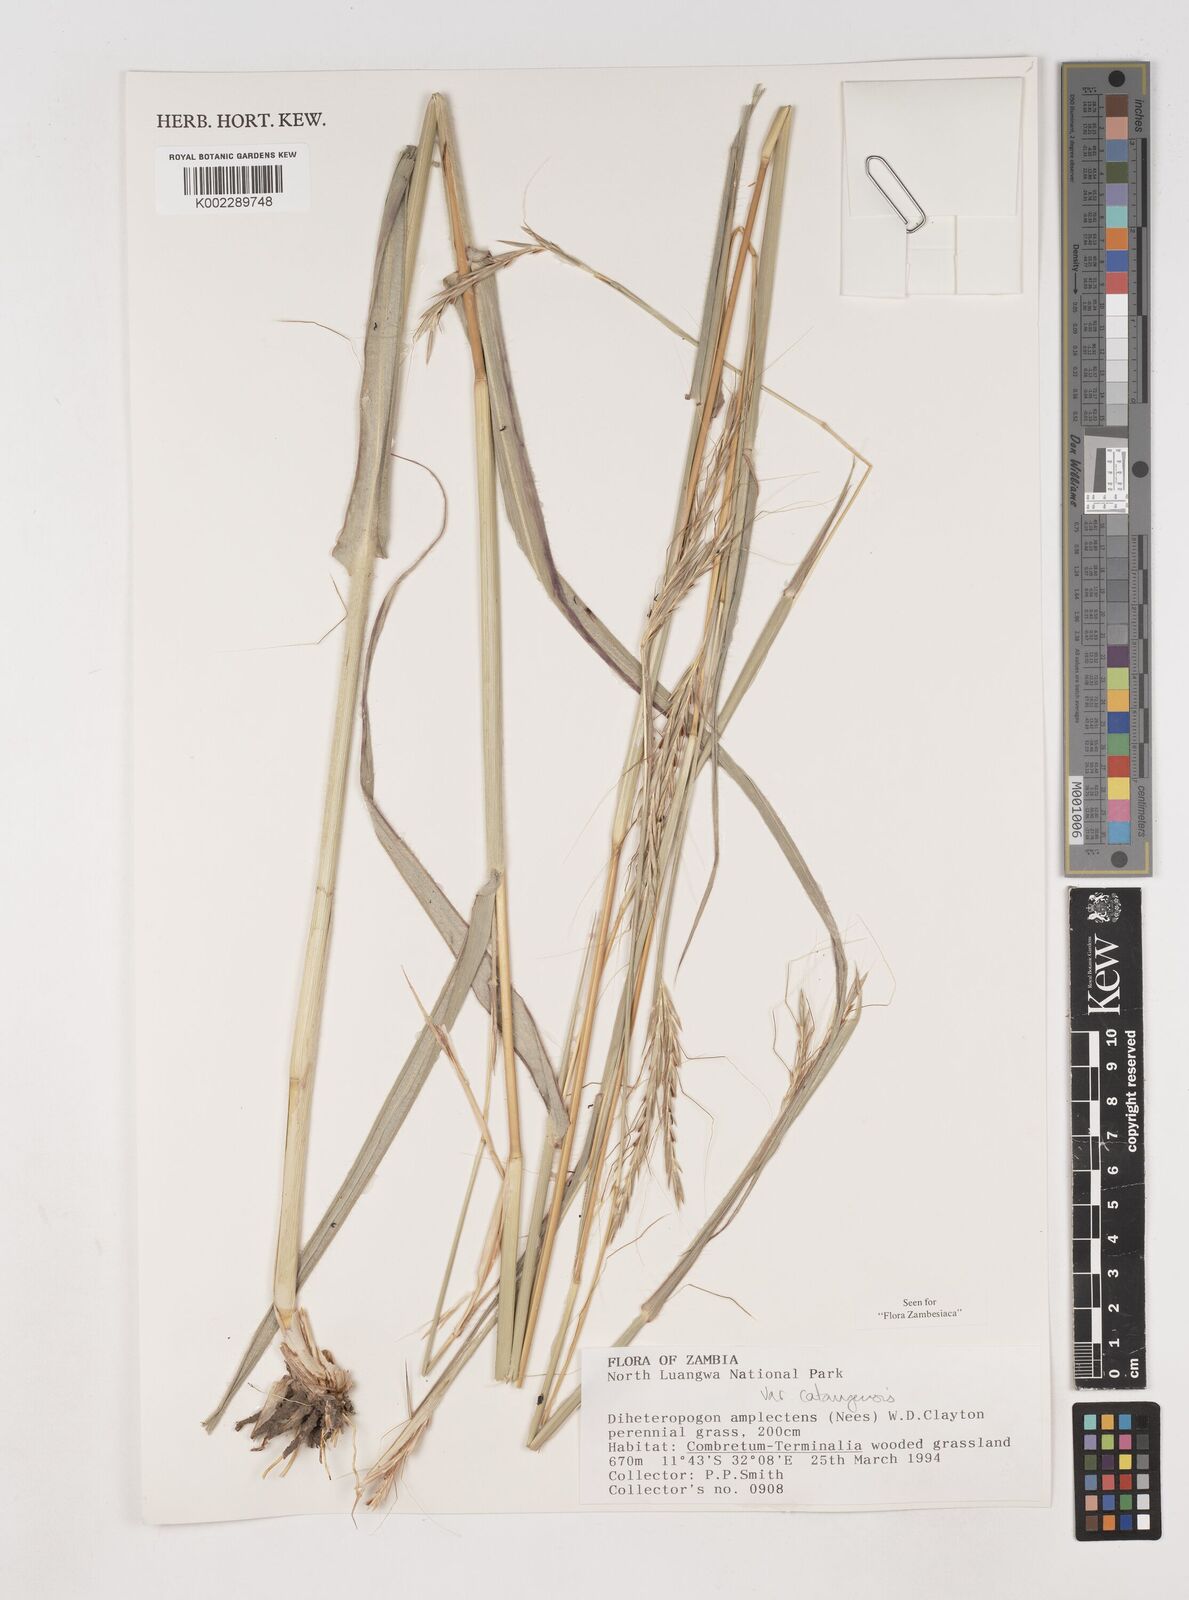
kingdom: Plantae
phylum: Tracheophyta
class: Liliopsida
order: Poales
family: Poaceae
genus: Diheteropogon
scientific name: Diheteropogon amplectens
